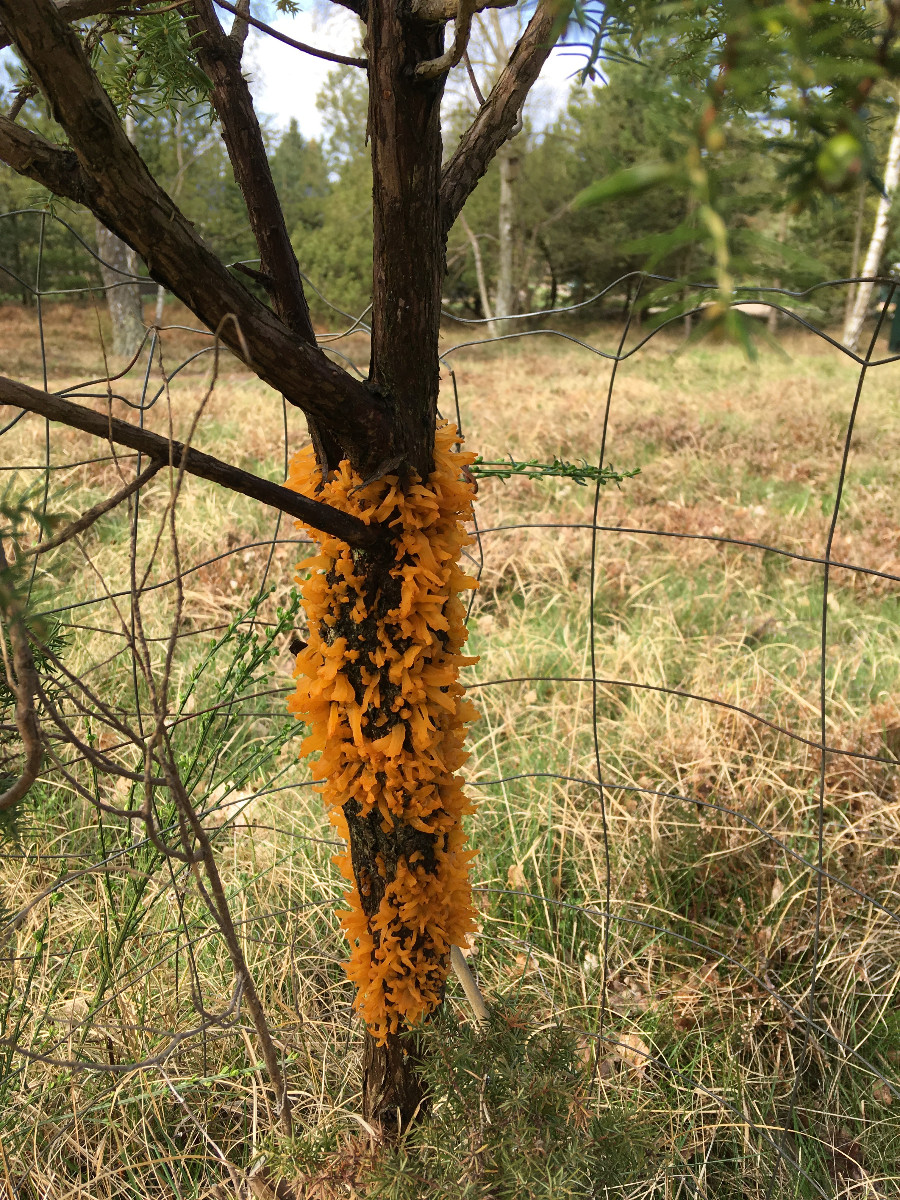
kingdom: Fungi
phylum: Basidiomycota
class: Pucciniomycetes
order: Pucciniales
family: Gymnosporangiaceae
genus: Gymnosporangium
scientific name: Gymnosporangium clavariiforme
